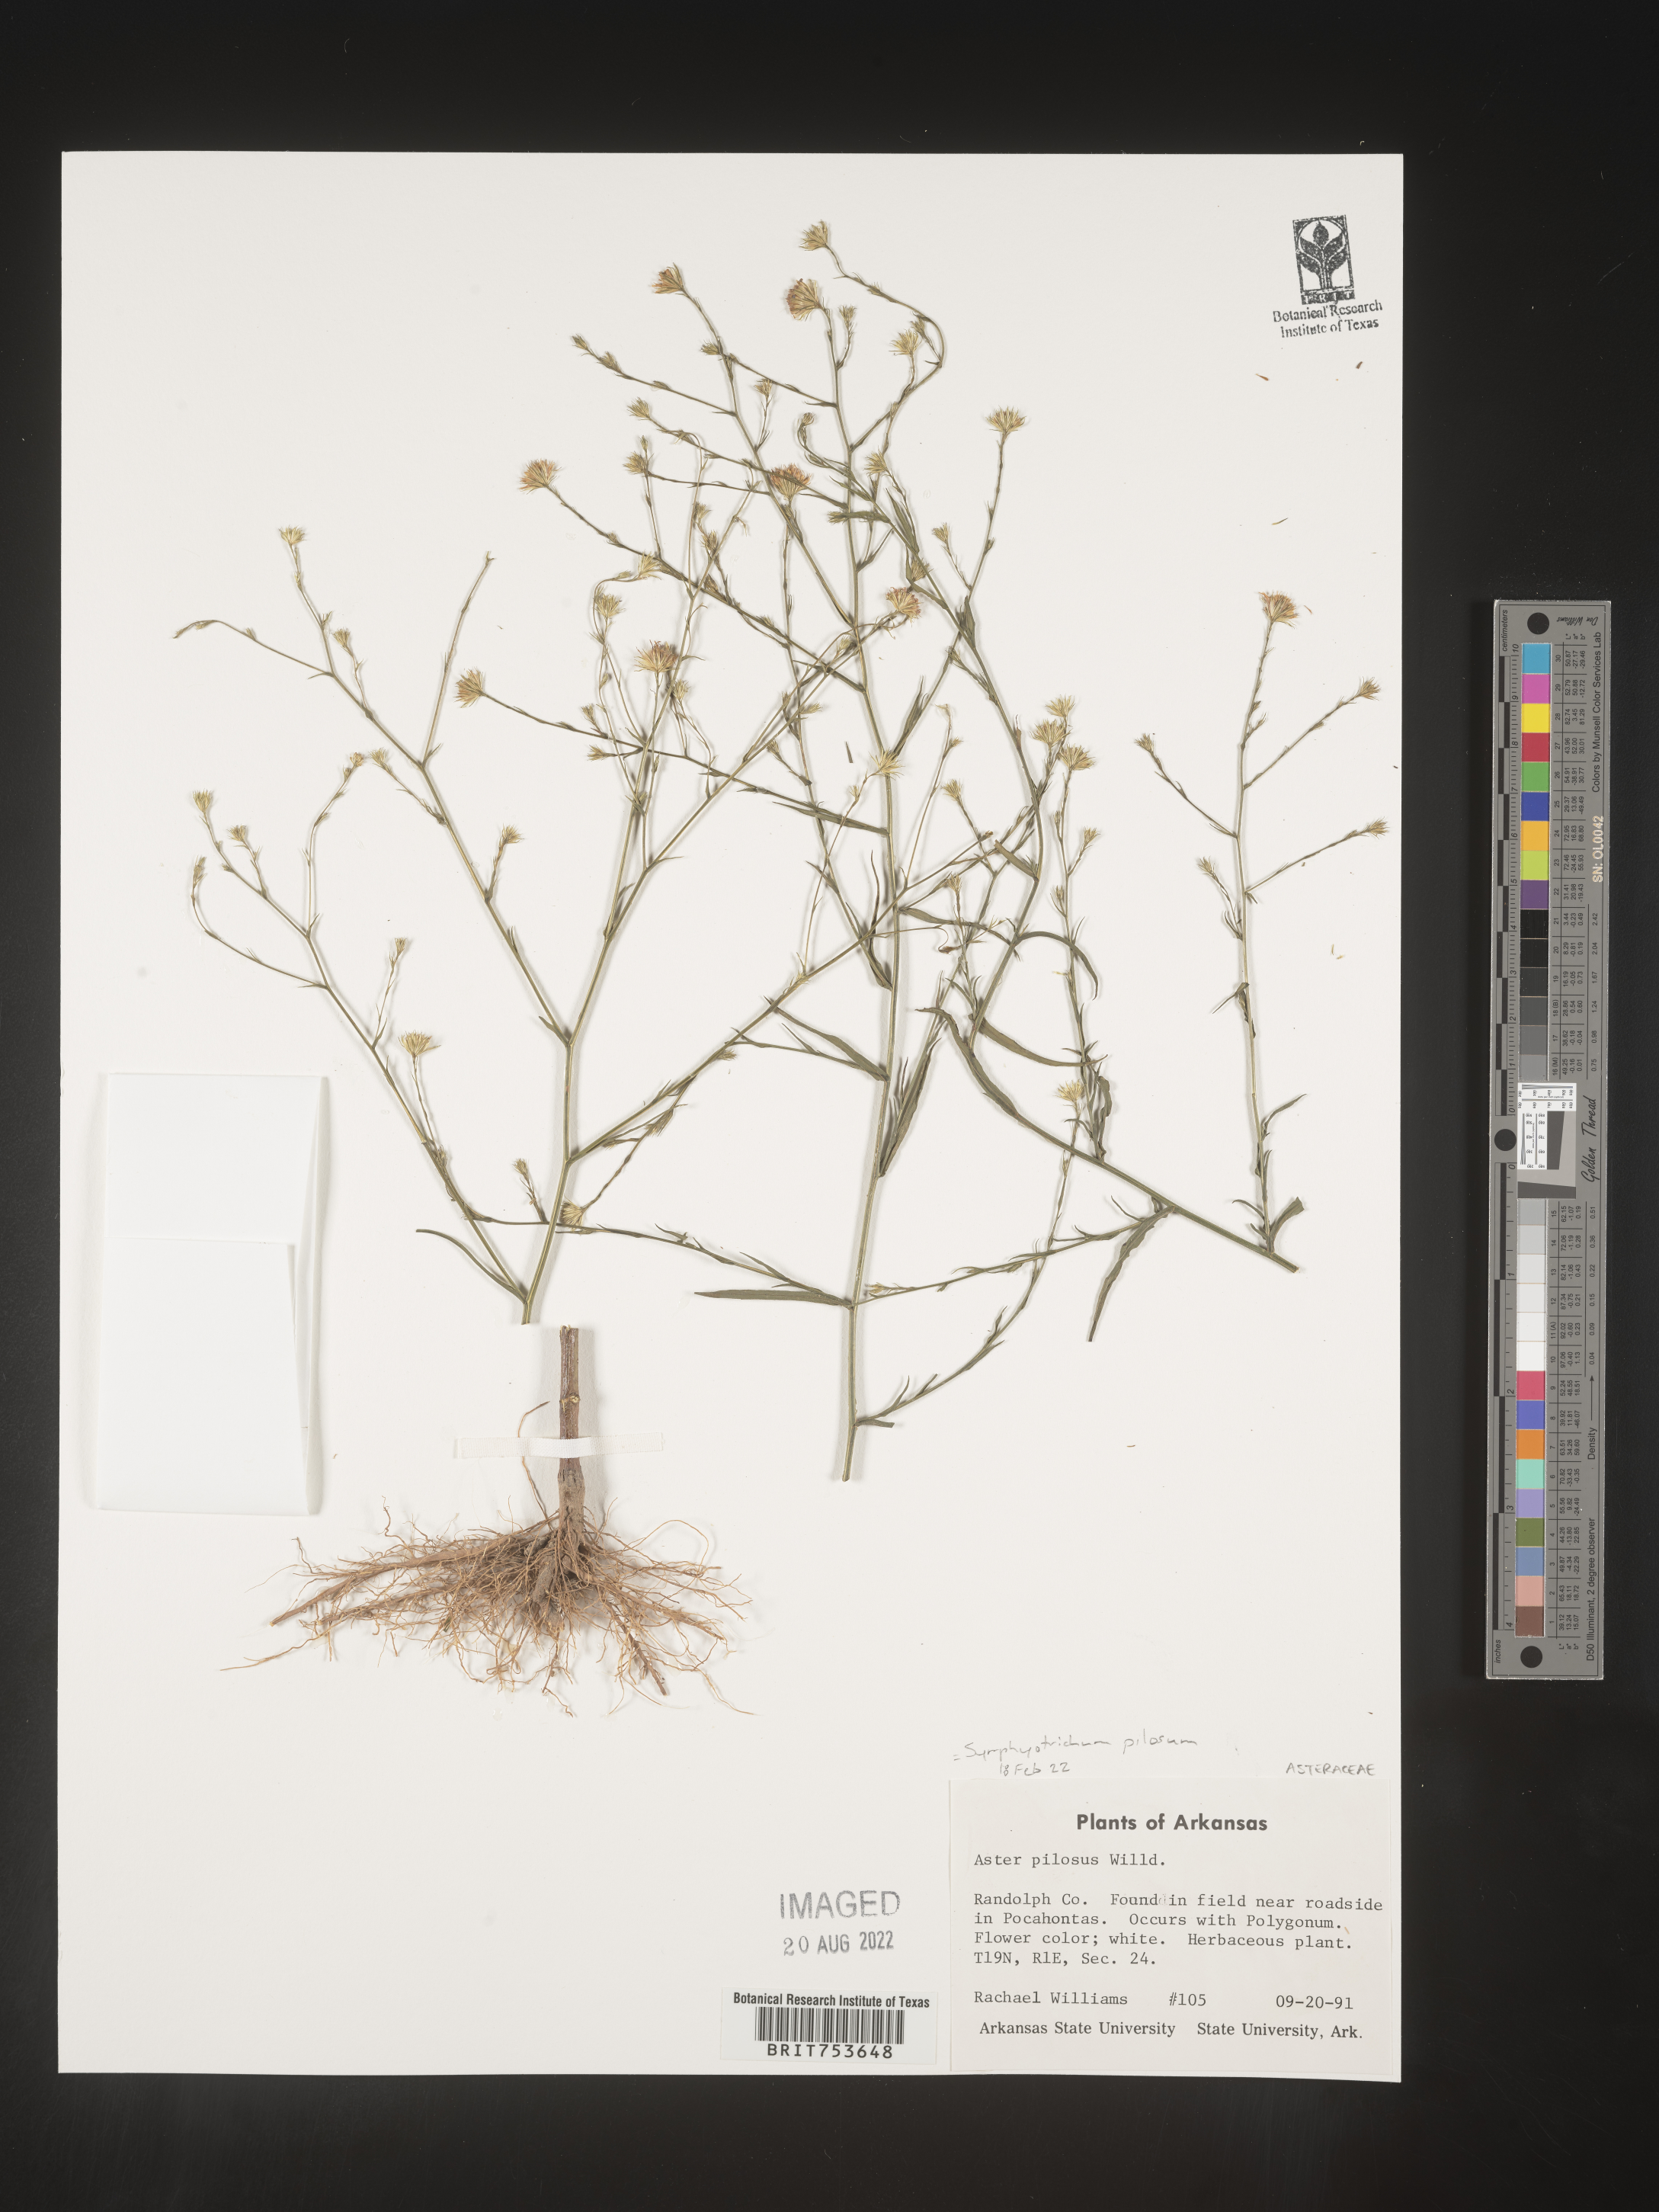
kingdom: Plantae
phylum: Tracheophyta
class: Magnoliopsida
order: Asterales
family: Asteraceae
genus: Symphyotrichum
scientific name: Symphyotrichum pilosum
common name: Awl aster
